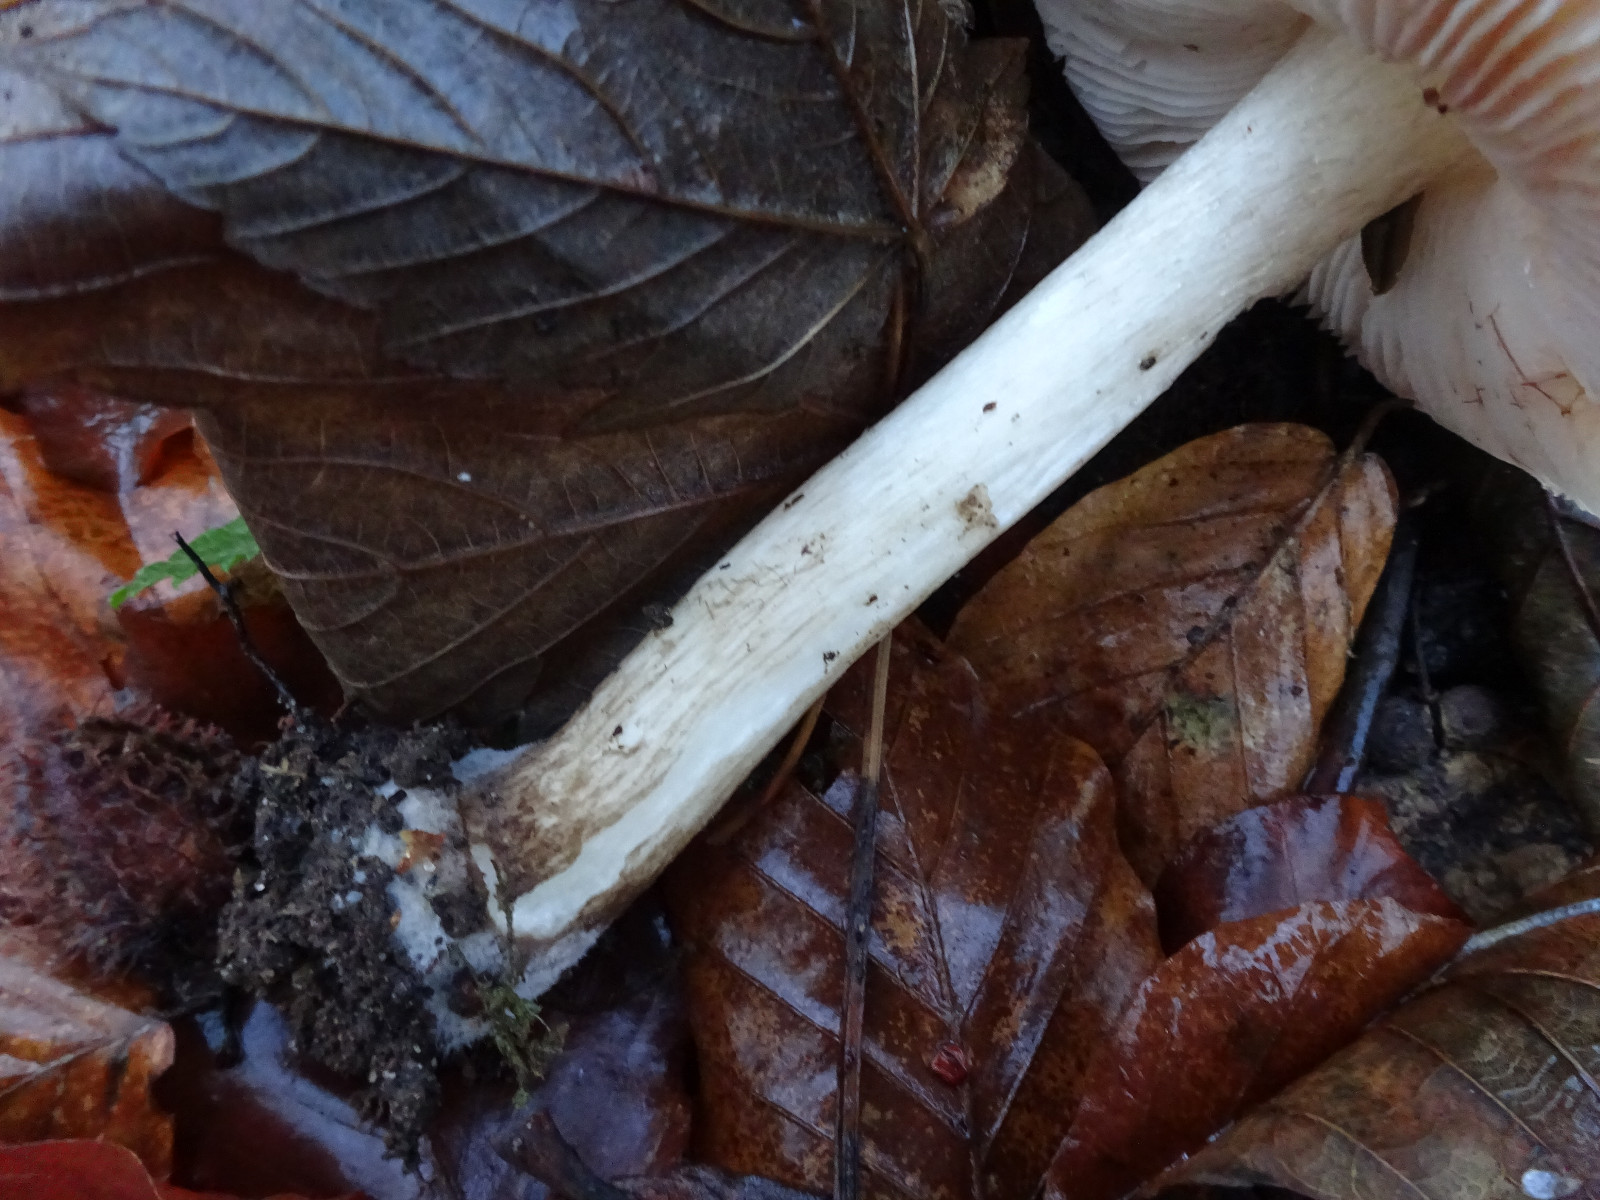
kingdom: Fungi
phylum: Basidiomycota
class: Agaricomycetes
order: Agaricales
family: Pluteaceae
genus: Pluteus
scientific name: Pluteus cervinus
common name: sodfarvet skærmhat
